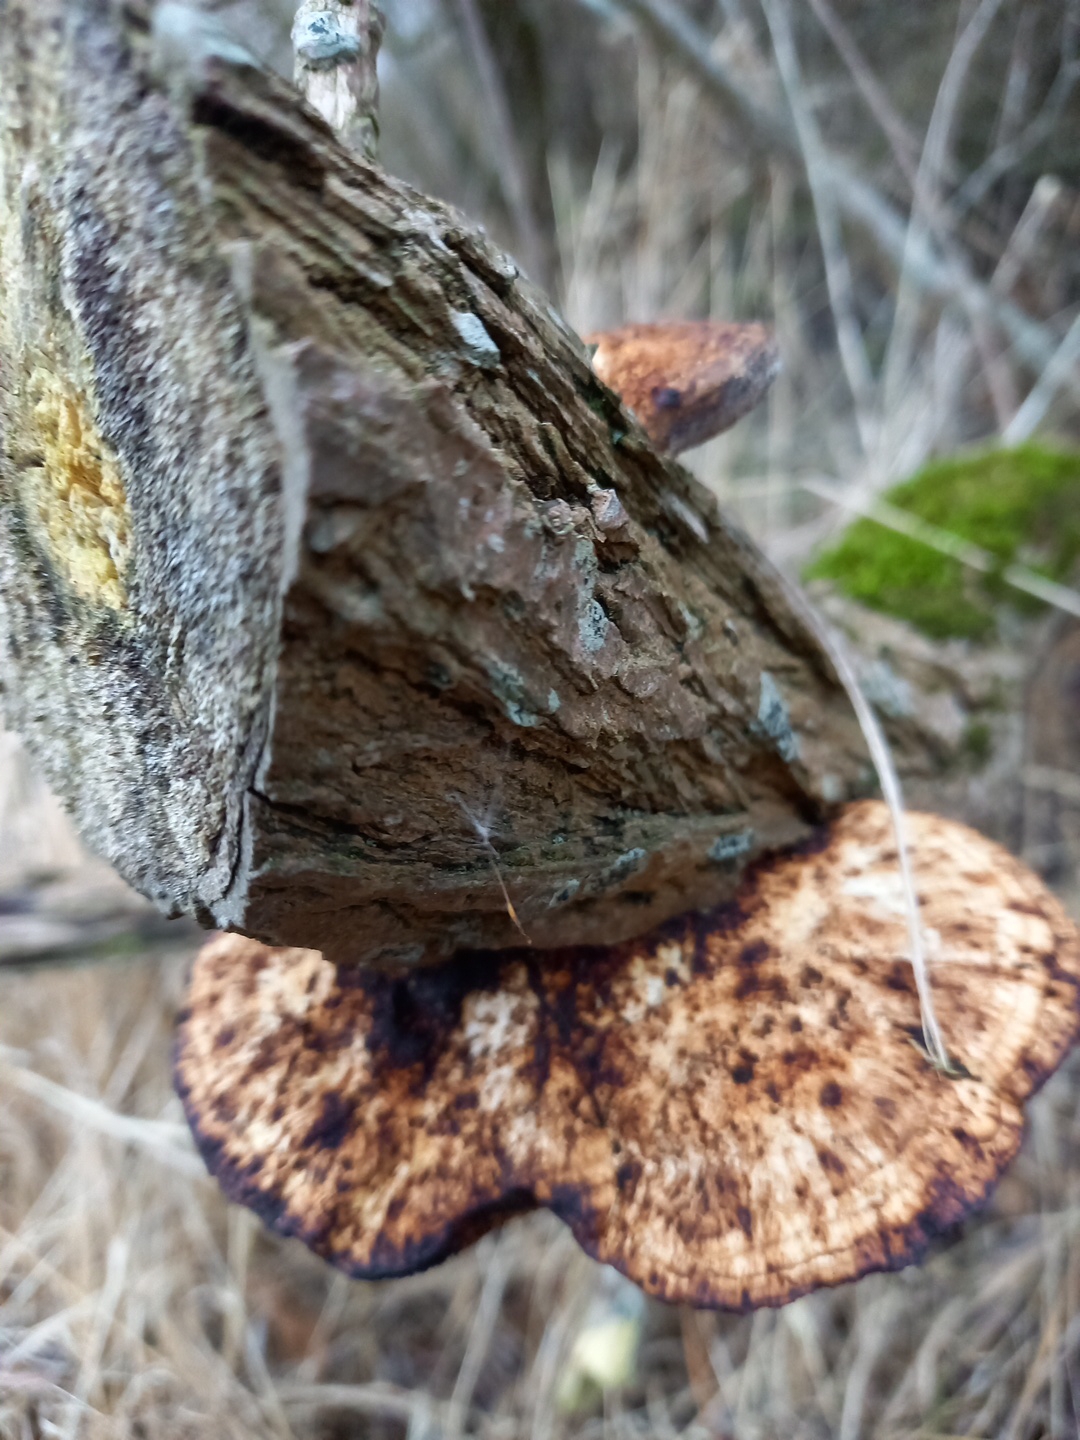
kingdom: Fungi
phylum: Basidiomycota
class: Agaricomycetes
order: Polyporales
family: Polyporaceae
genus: Daedaleopsis
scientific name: Daedaleopsis confragosa
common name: rødmende læderporesvamp
